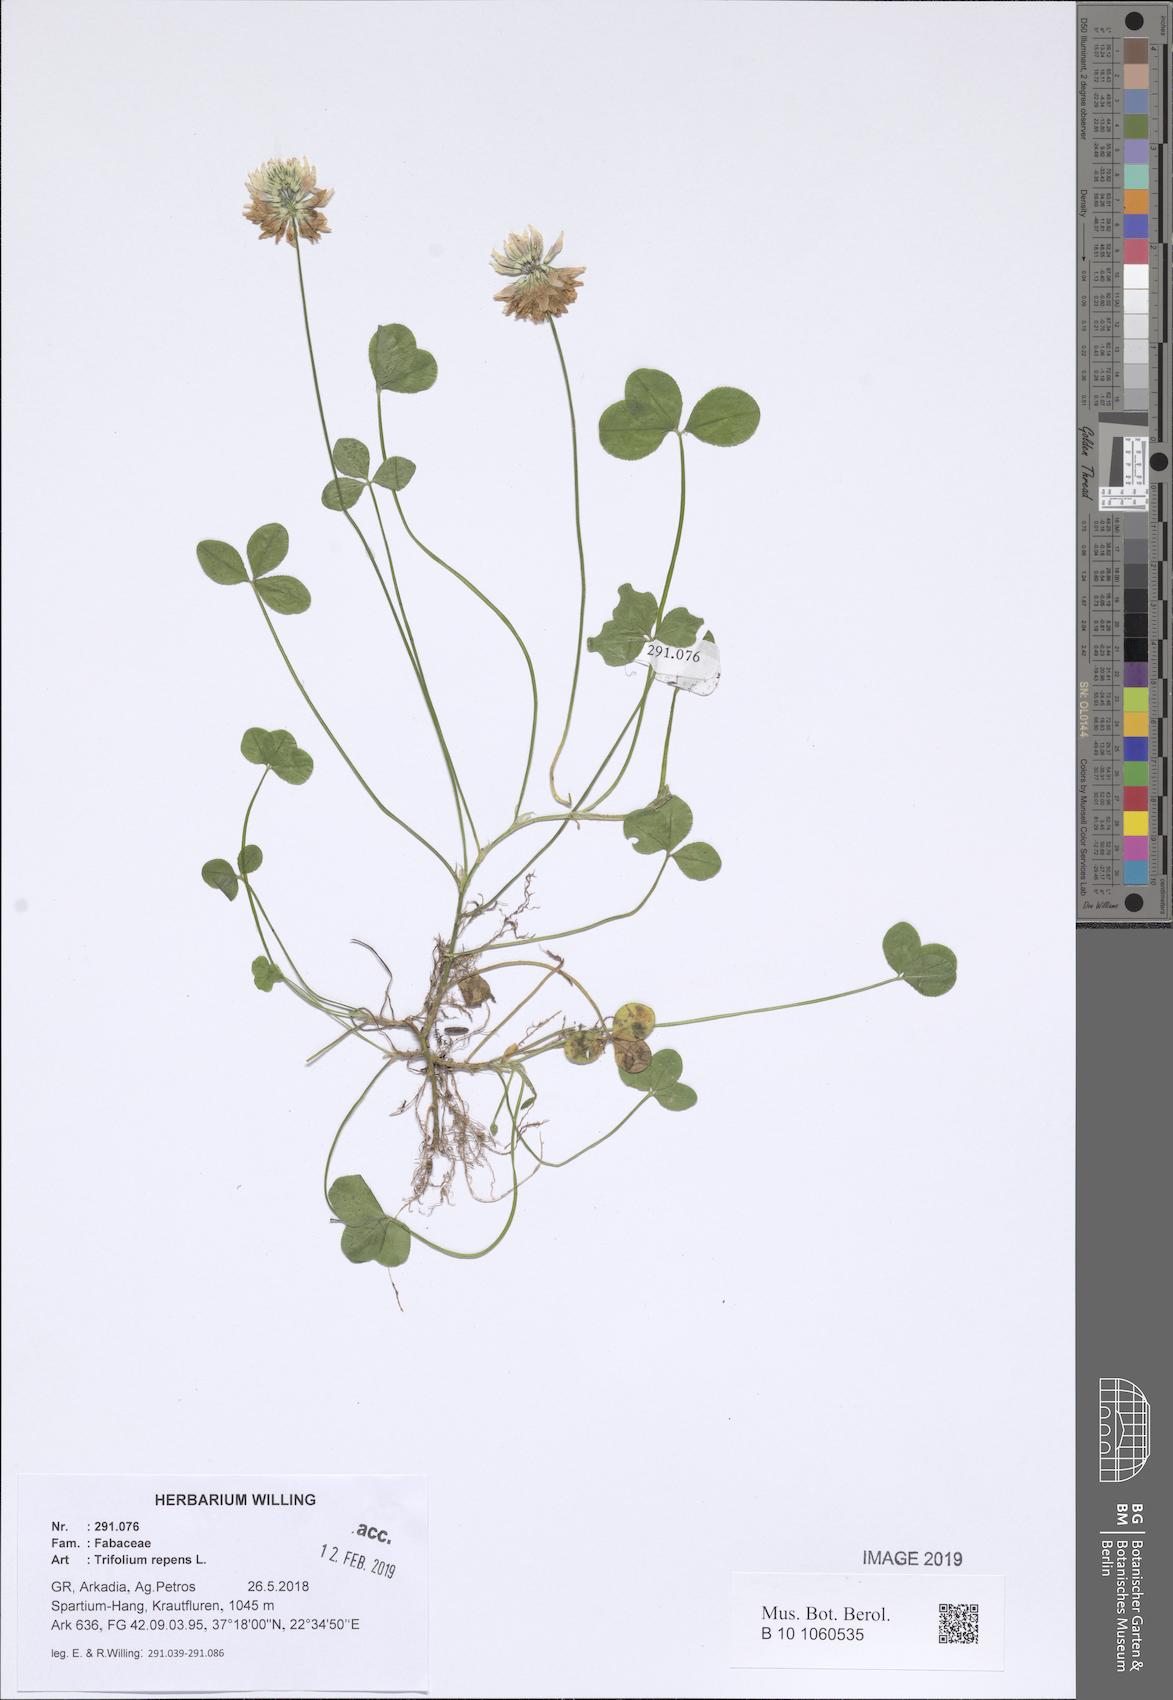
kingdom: Plantae
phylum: Tracheophyta
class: Magnoliopsida
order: Fabales
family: Fabaceae
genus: Trifolium
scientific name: Trifolium repens
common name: White clover
